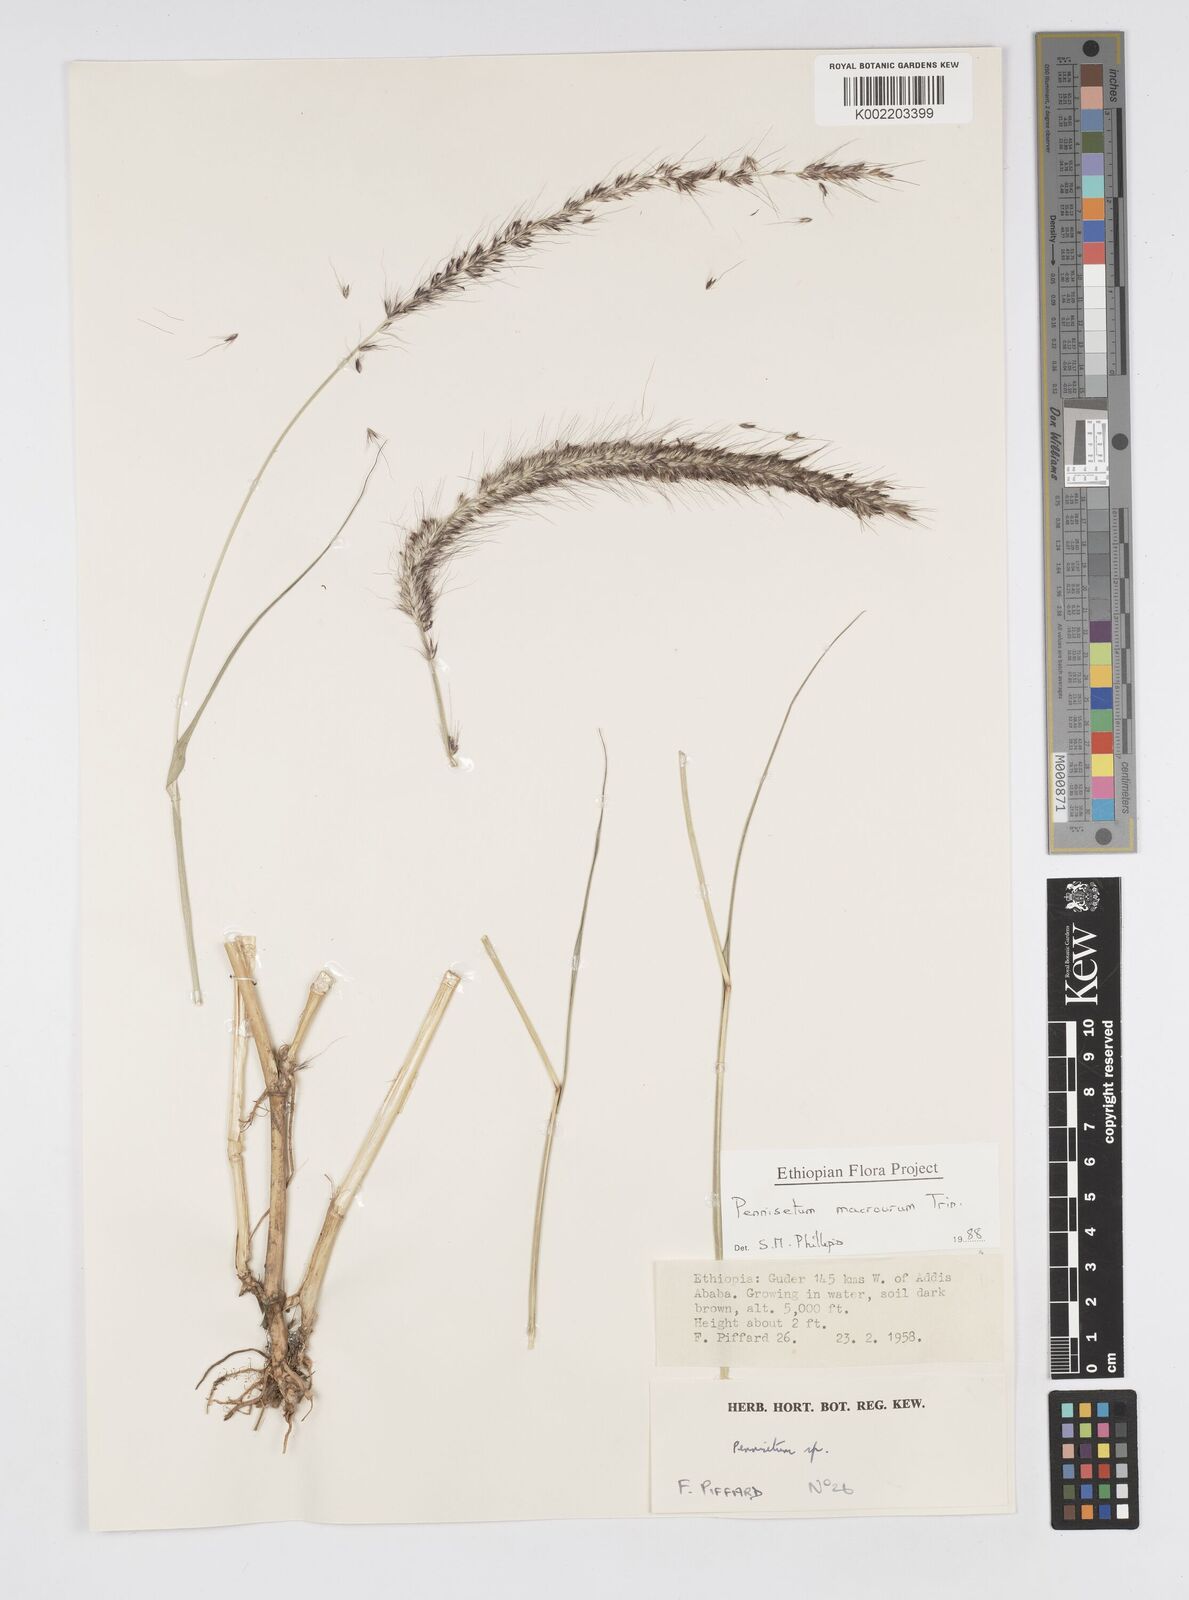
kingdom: Plantae
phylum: Tracheophyta
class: Liliopsida
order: Poales
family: Poaceae
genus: Cenchrus
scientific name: Cenchrus caudatus
